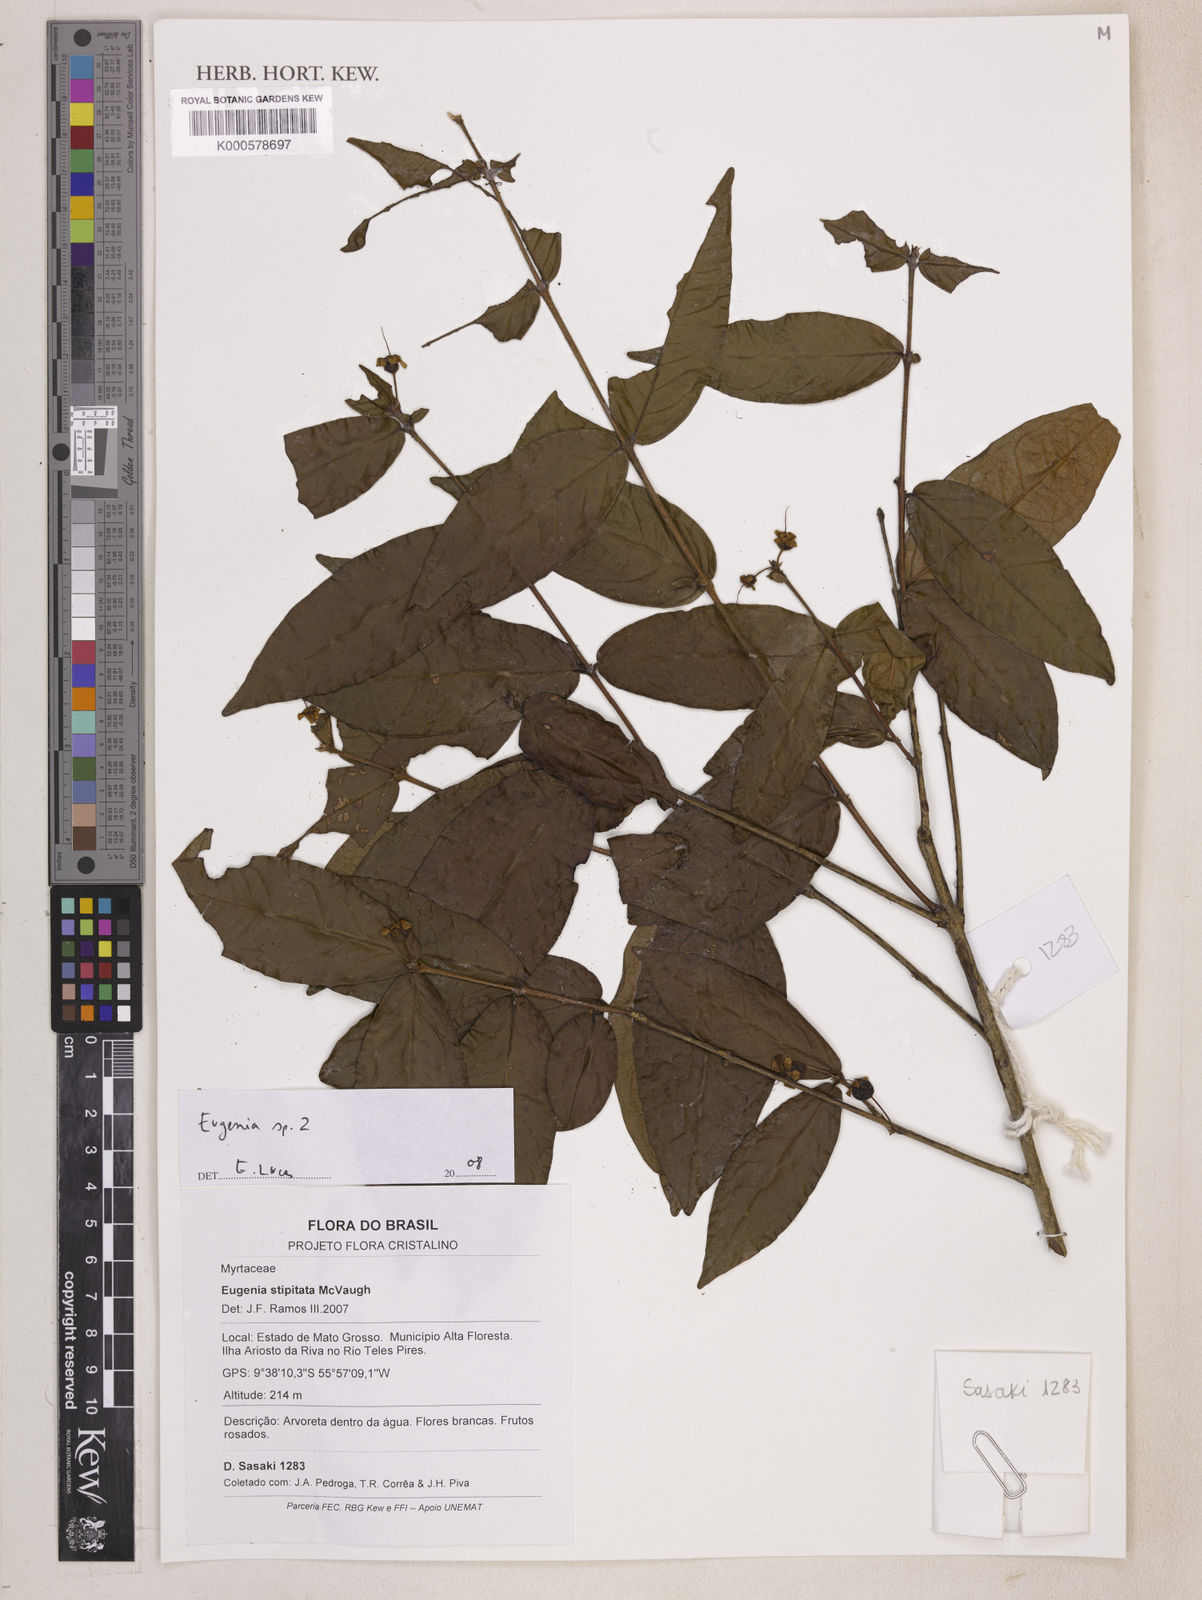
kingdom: Plantae
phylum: Tracheophyta
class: Magnoliopsida
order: Myrtales
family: Myrtaceae
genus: Eugenia
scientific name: Eugenia roseiflora
